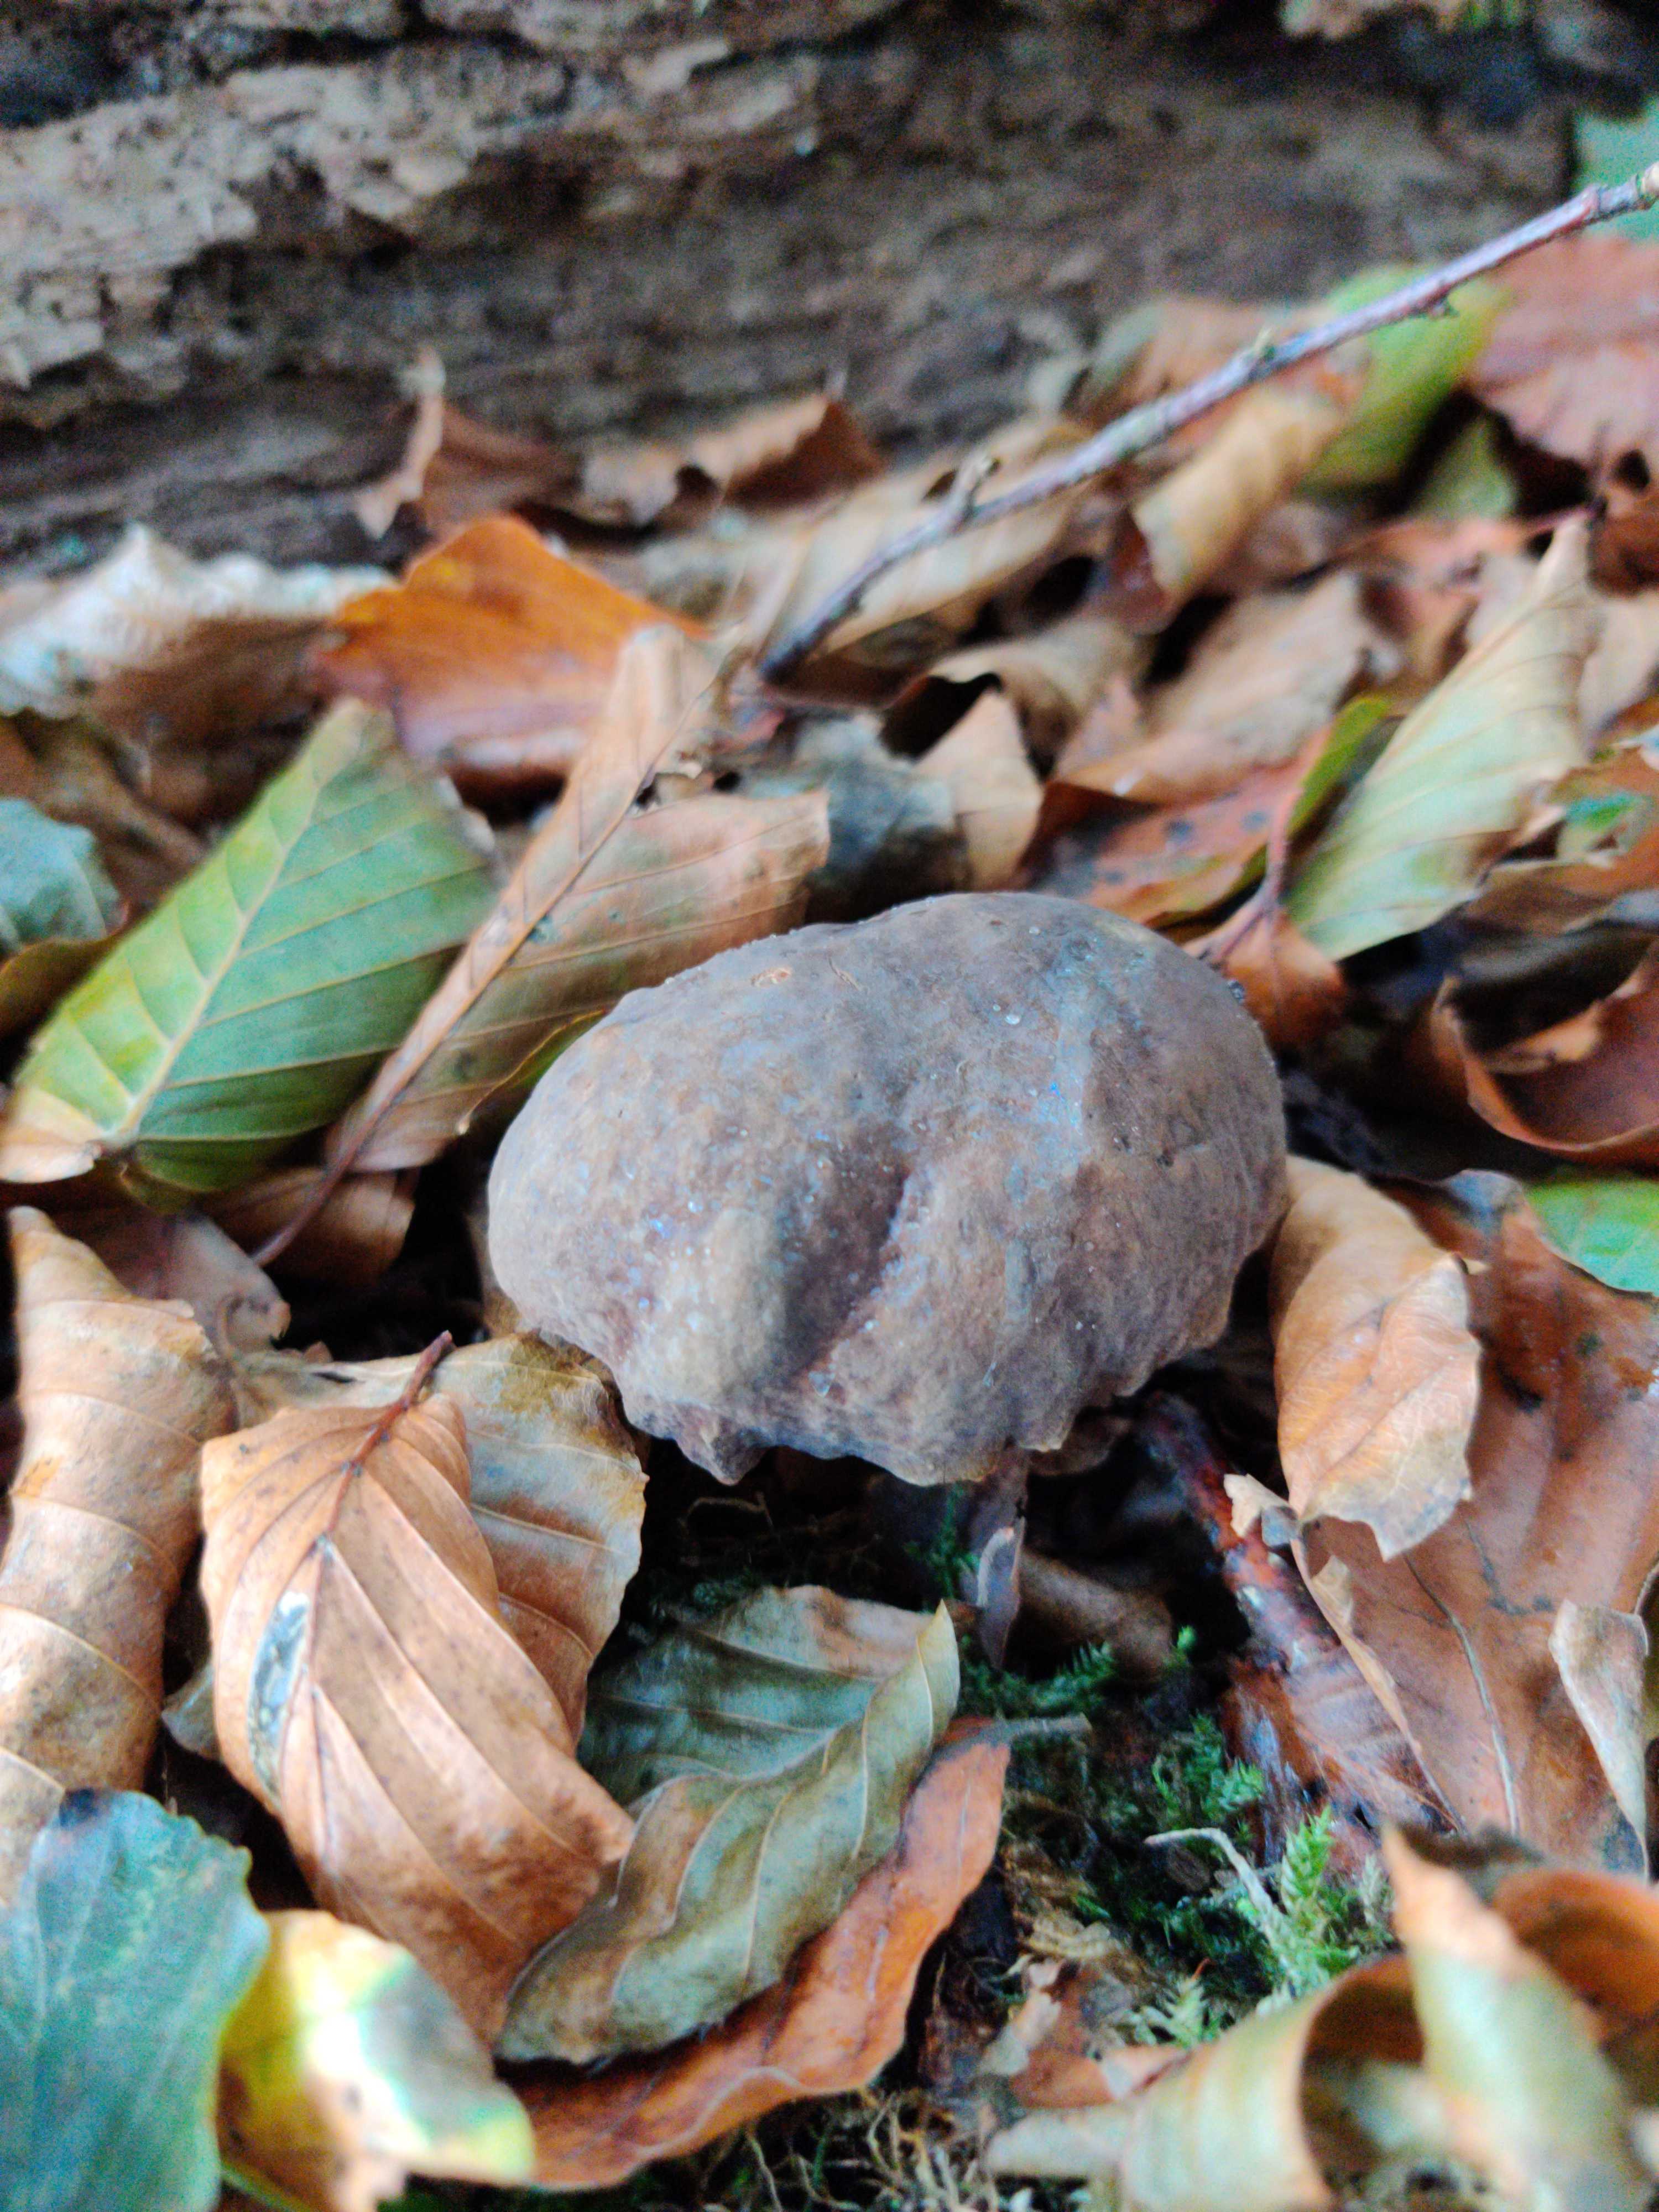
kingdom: Fungi
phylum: Basidiomycota
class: Agaricomycetes
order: Boletales
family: Boletaceae
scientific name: Boletaceae
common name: rørhatfamilien
